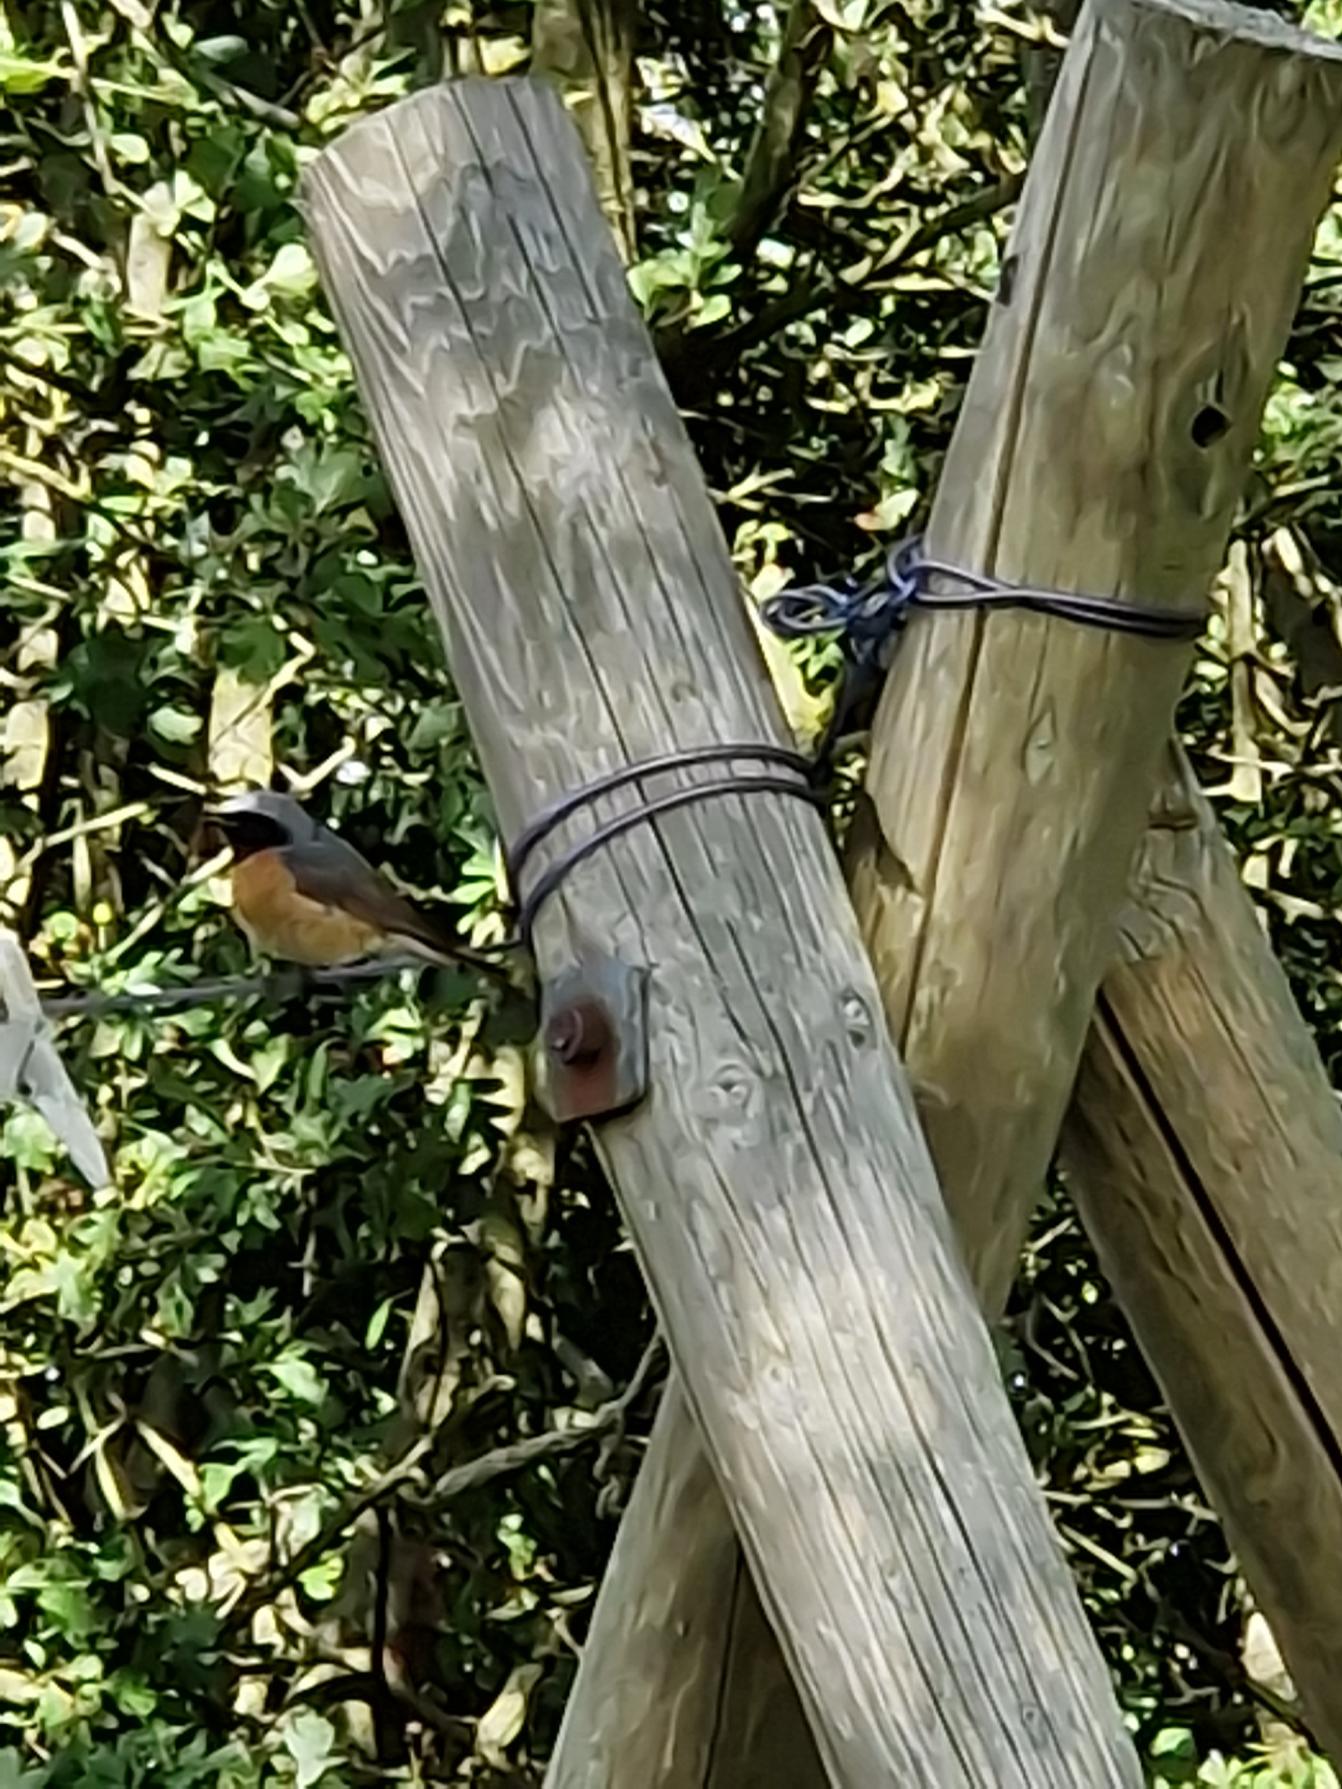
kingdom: Animalia
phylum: Chordata
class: Aves
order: Passeriformes
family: Muscicapidae
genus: Phoenicurus
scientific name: Phoenicurus phoenicurus
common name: Rødstjert
